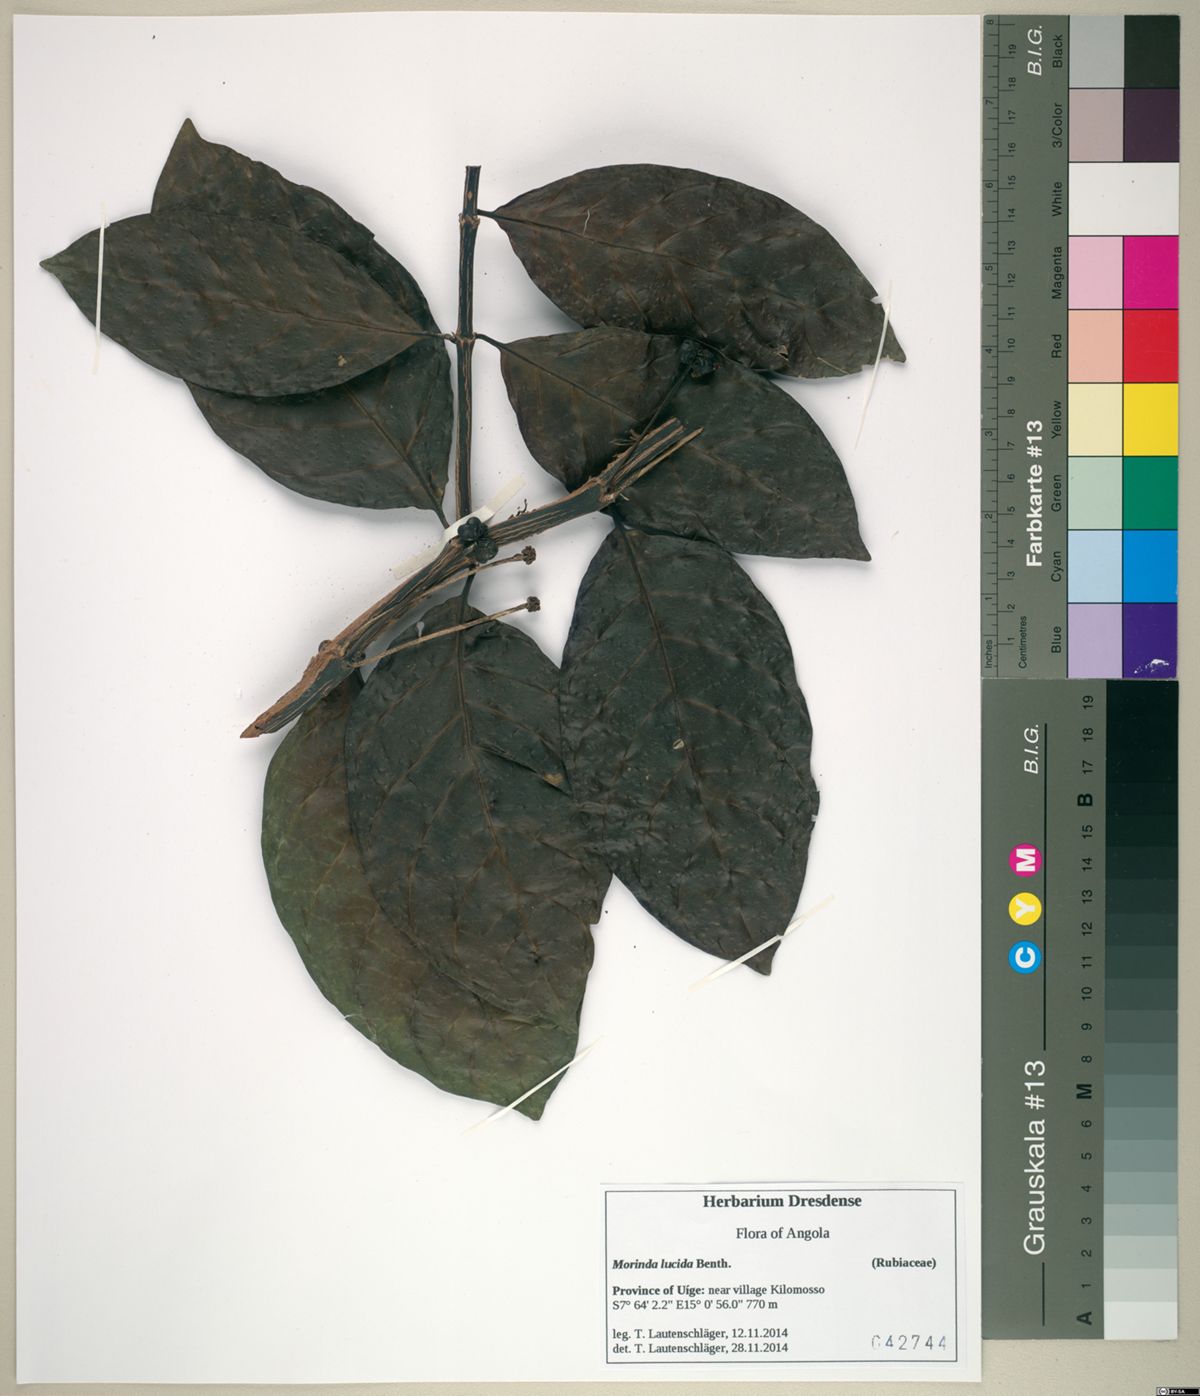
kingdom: Plantae
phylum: Tracheophyta
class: Magnoliopsida
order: Gentianales
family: Rubiaceae
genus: Morinda
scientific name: Morinda lucida
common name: Brimstonetree
